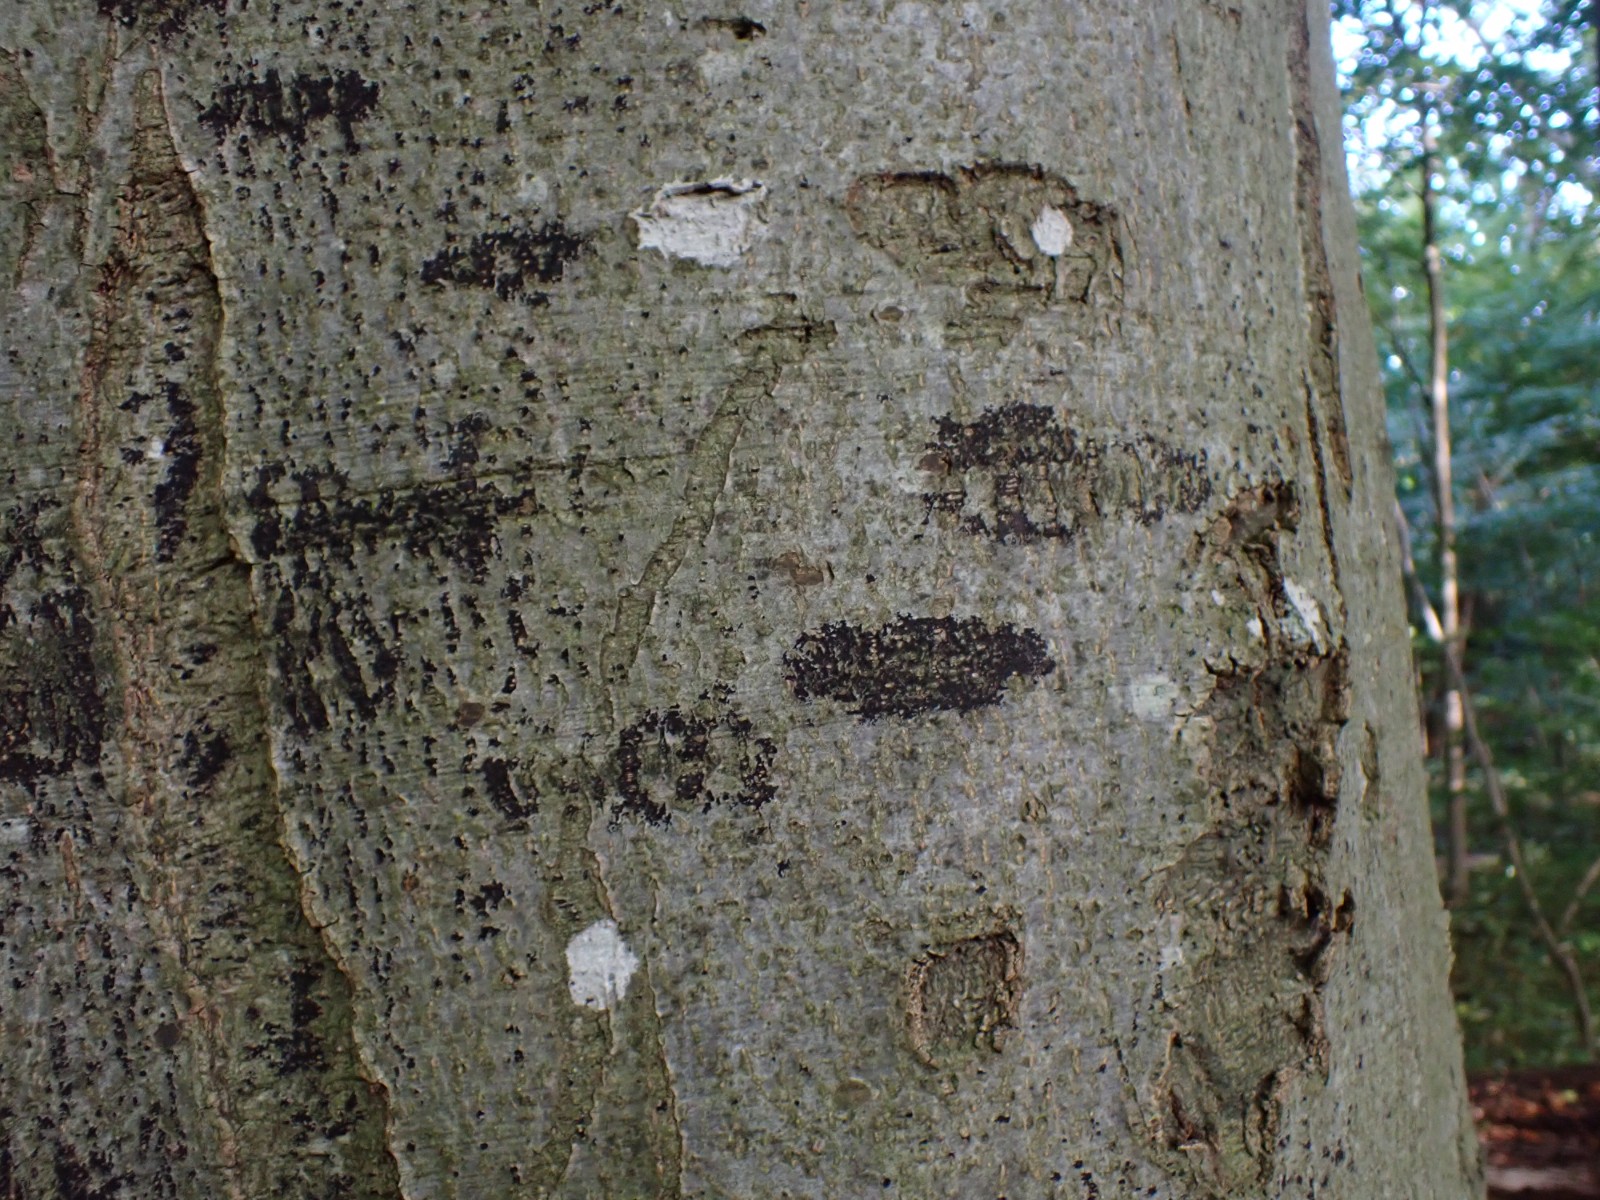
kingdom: Fungi
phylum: Ascomycota
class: Leotiomycetes
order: Rhytismatales
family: Ascodichaenaceae
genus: Ascodichaena
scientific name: Ascodichaena rugosa
